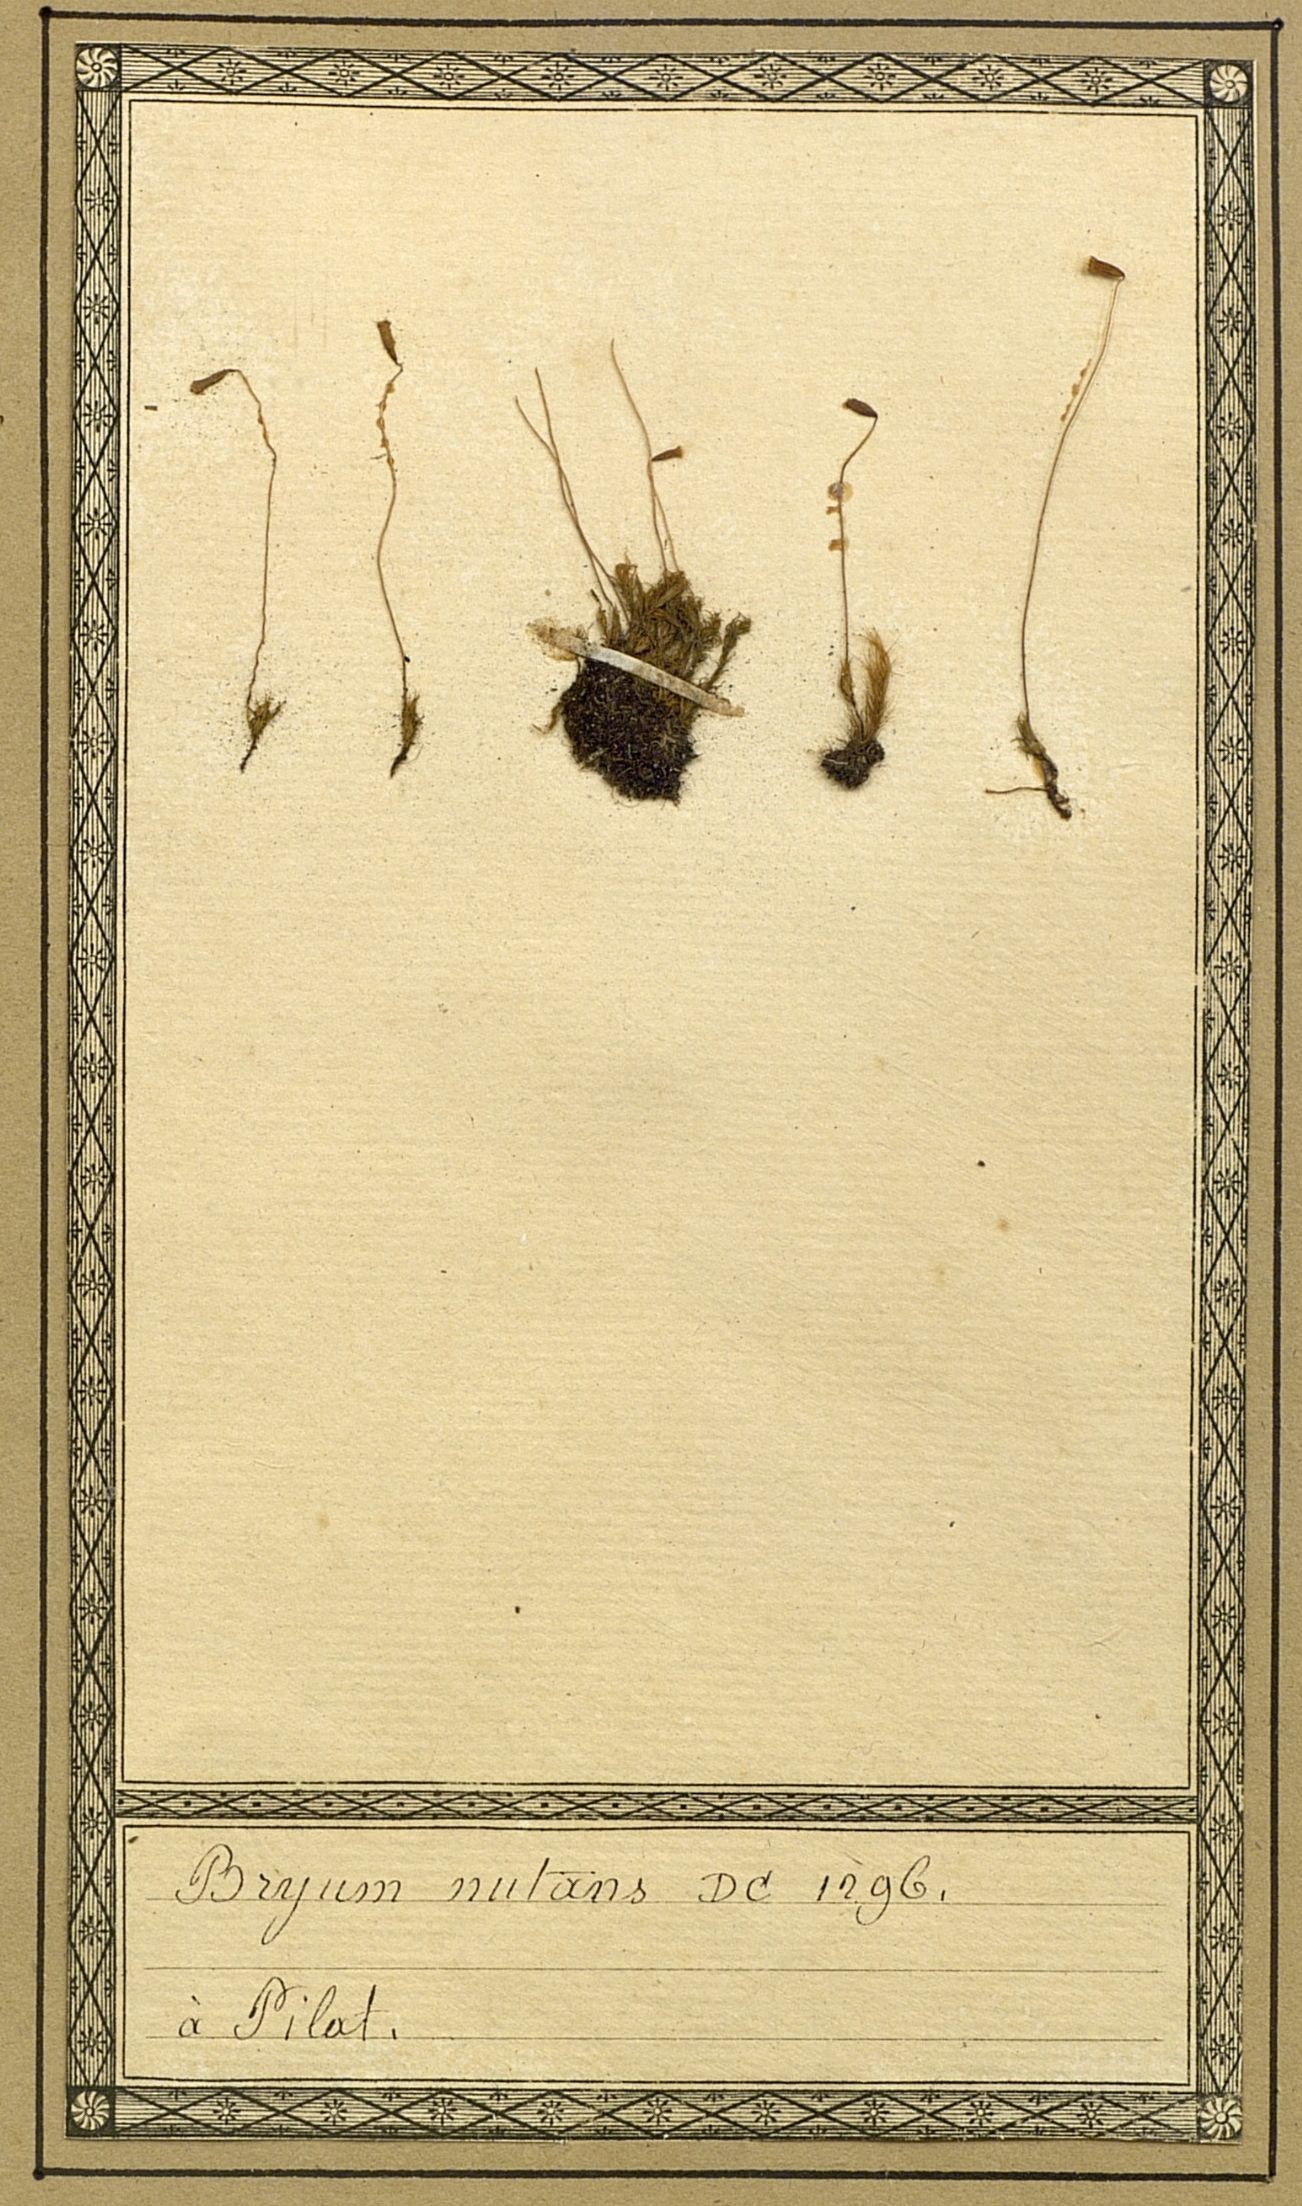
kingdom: Plantae
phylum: Bryophyta
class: Bryopsida
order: Bryales
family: Mniaceae
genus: Pohlia
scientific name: Pohlia nutans
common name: Nodding thread-moss
